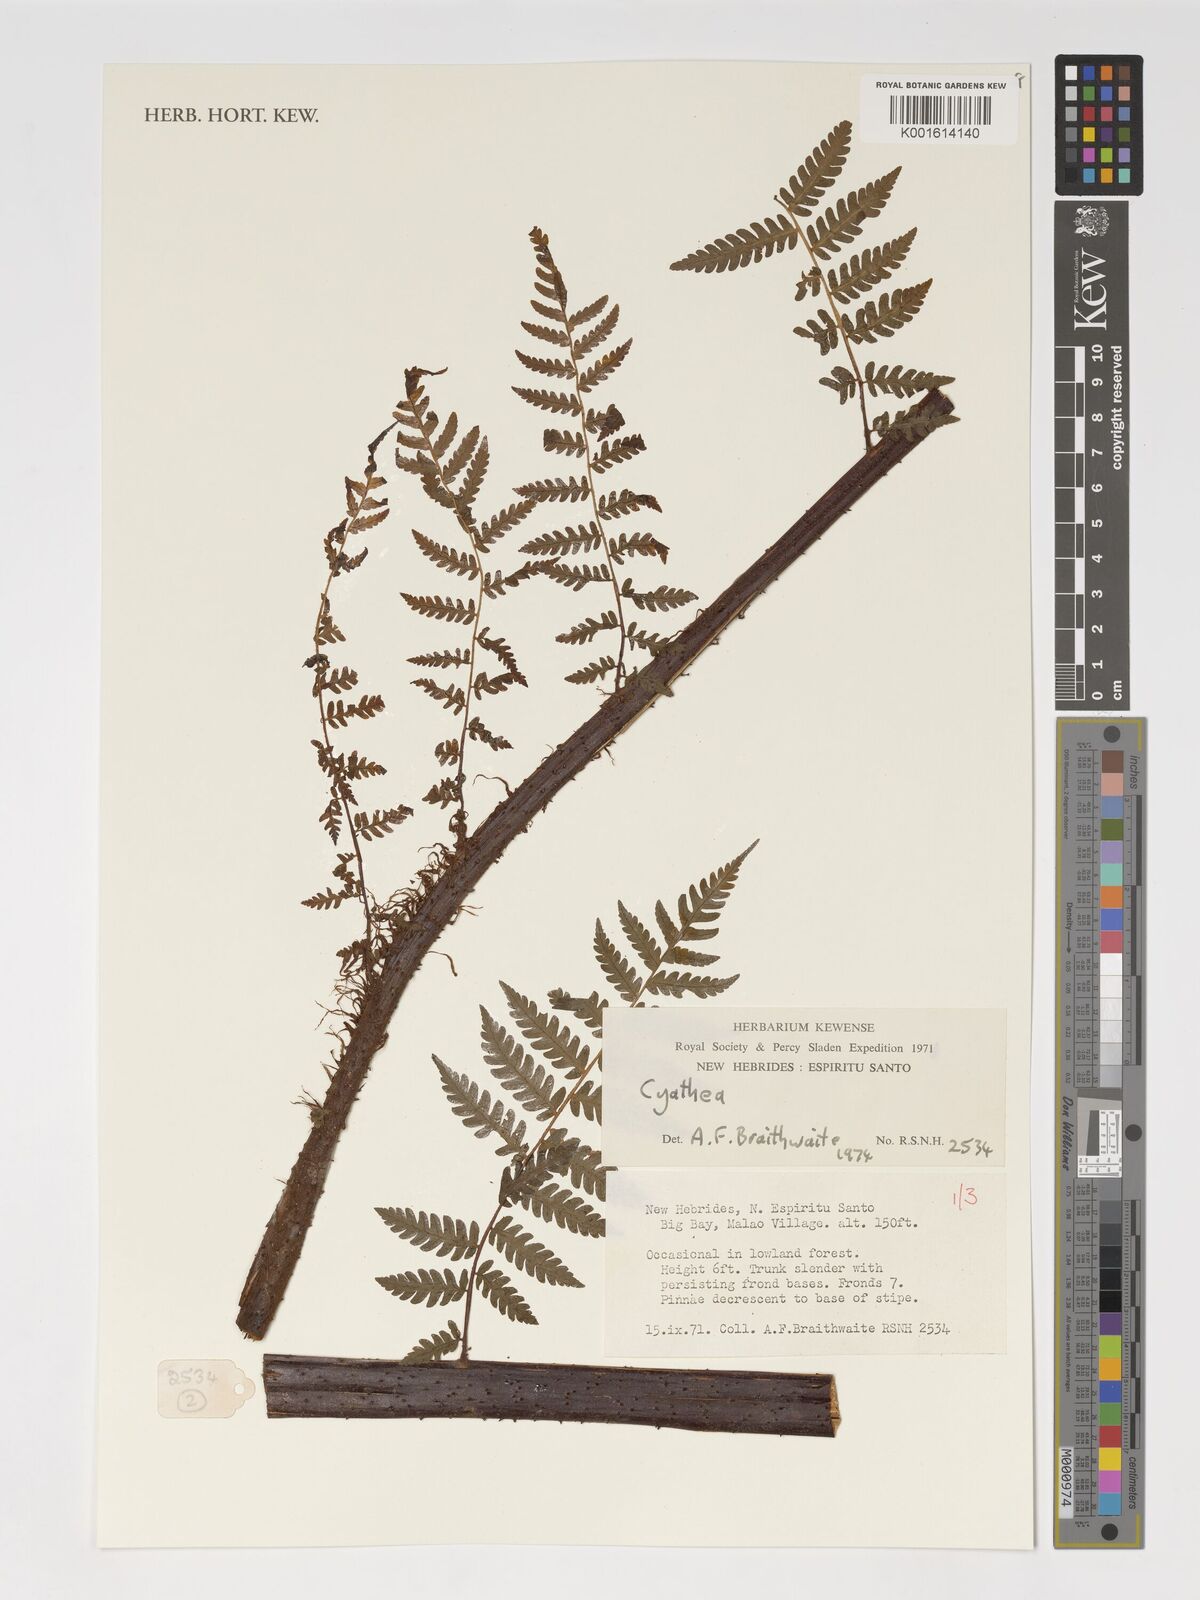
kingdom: Plantae
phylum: Tracheophyta
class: Polypodiopsida
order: Cyatheales
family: Cyatheaceae
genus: Cyathea
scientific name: Cyathea
